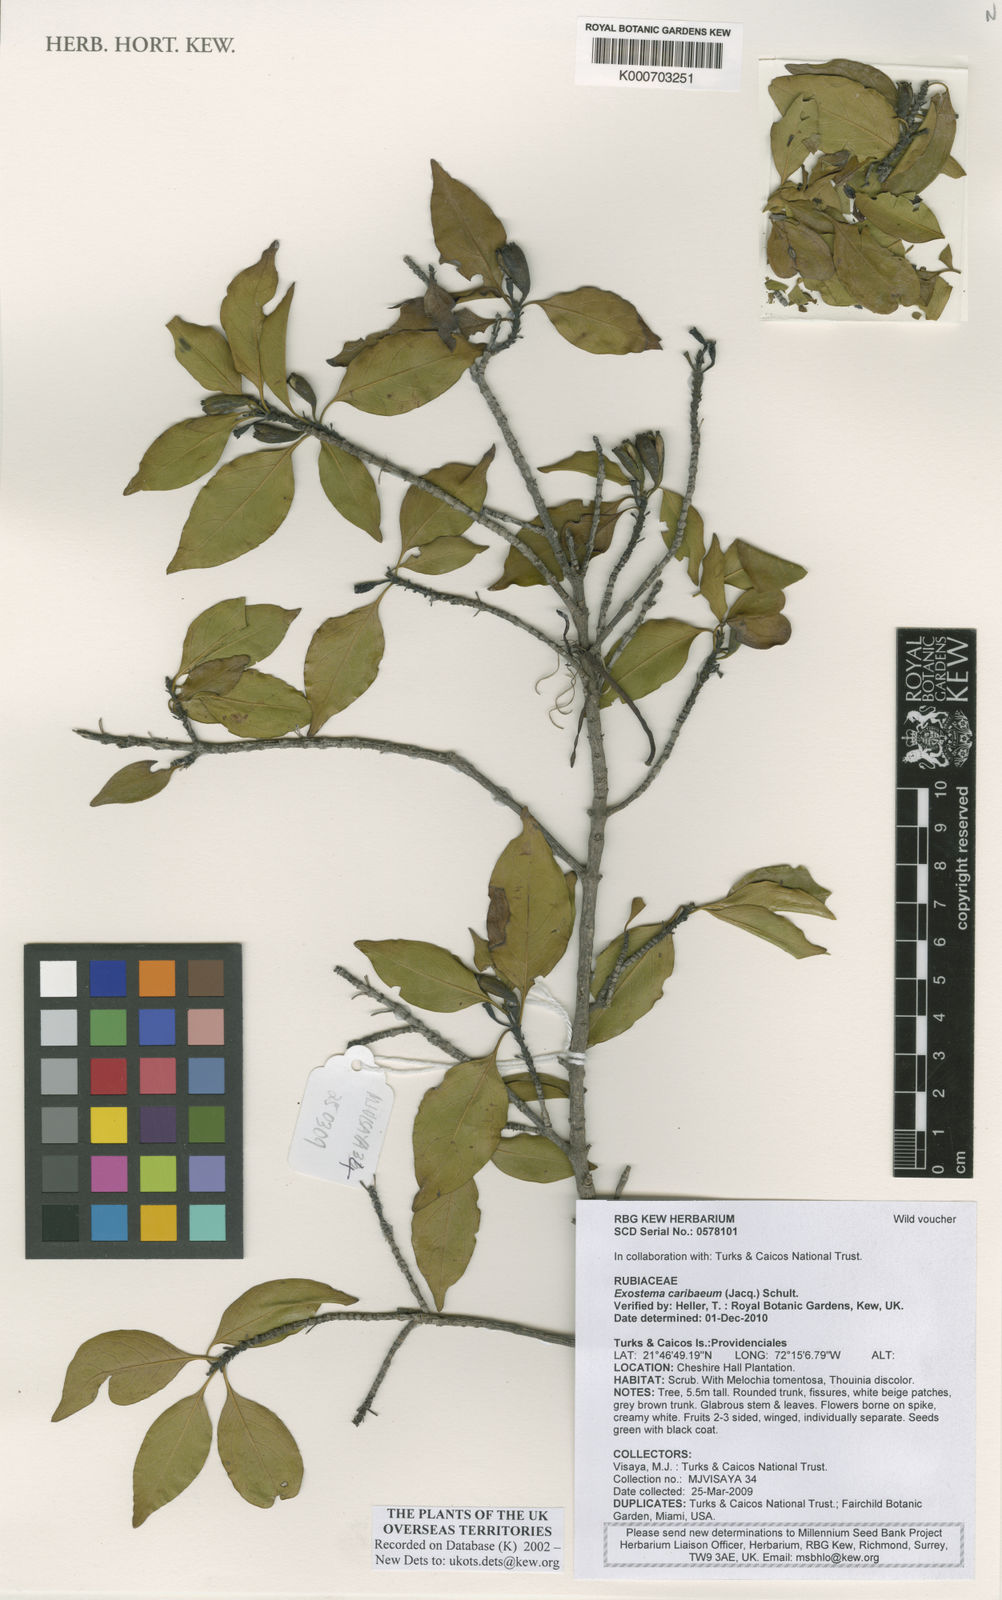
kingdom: Plantae
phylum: Tracheophyta
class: Magnoliopsida
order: Gentianales
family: Rubiaceae
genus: Exostema
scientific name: Exostema caribaeum
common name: Princewood
